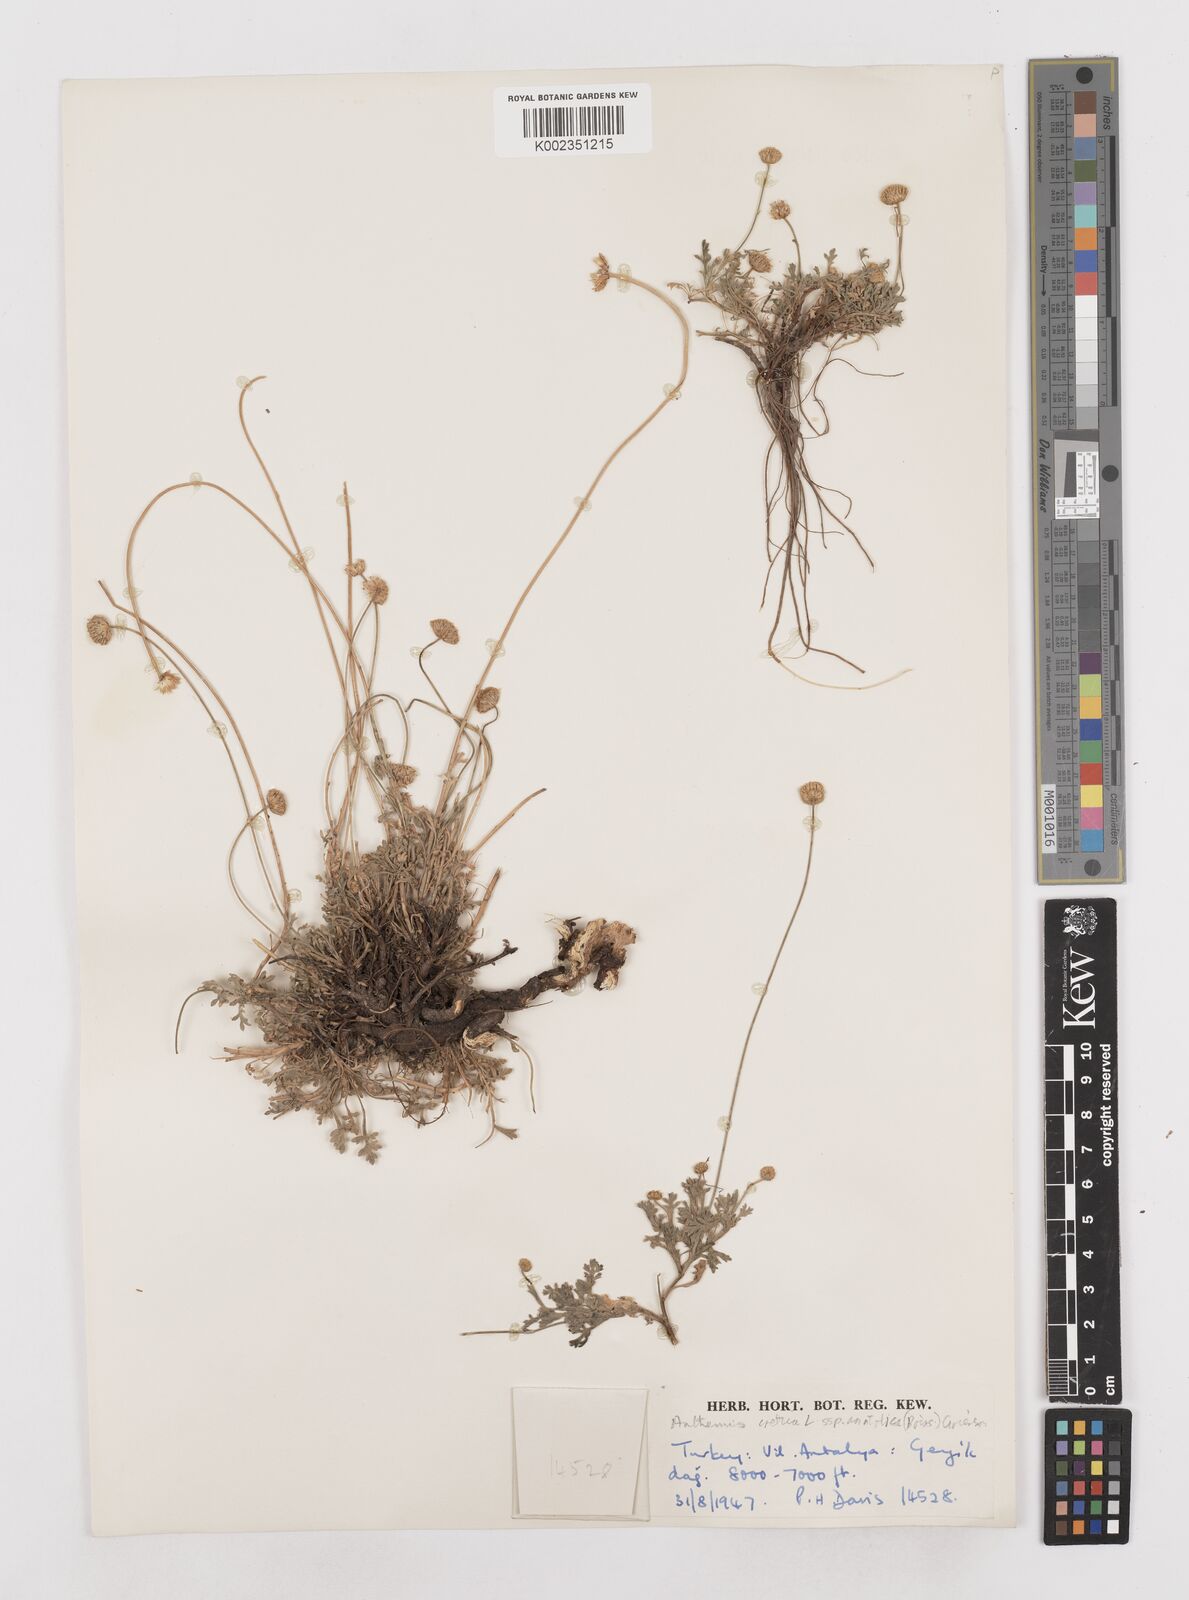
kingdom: Plantae
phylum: Tracheophyta
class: Magnoliopsida
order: Asterales
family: Asteraceae
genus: Anthemis
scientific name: Anthemis cretica
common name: Mountain dog-daisy
